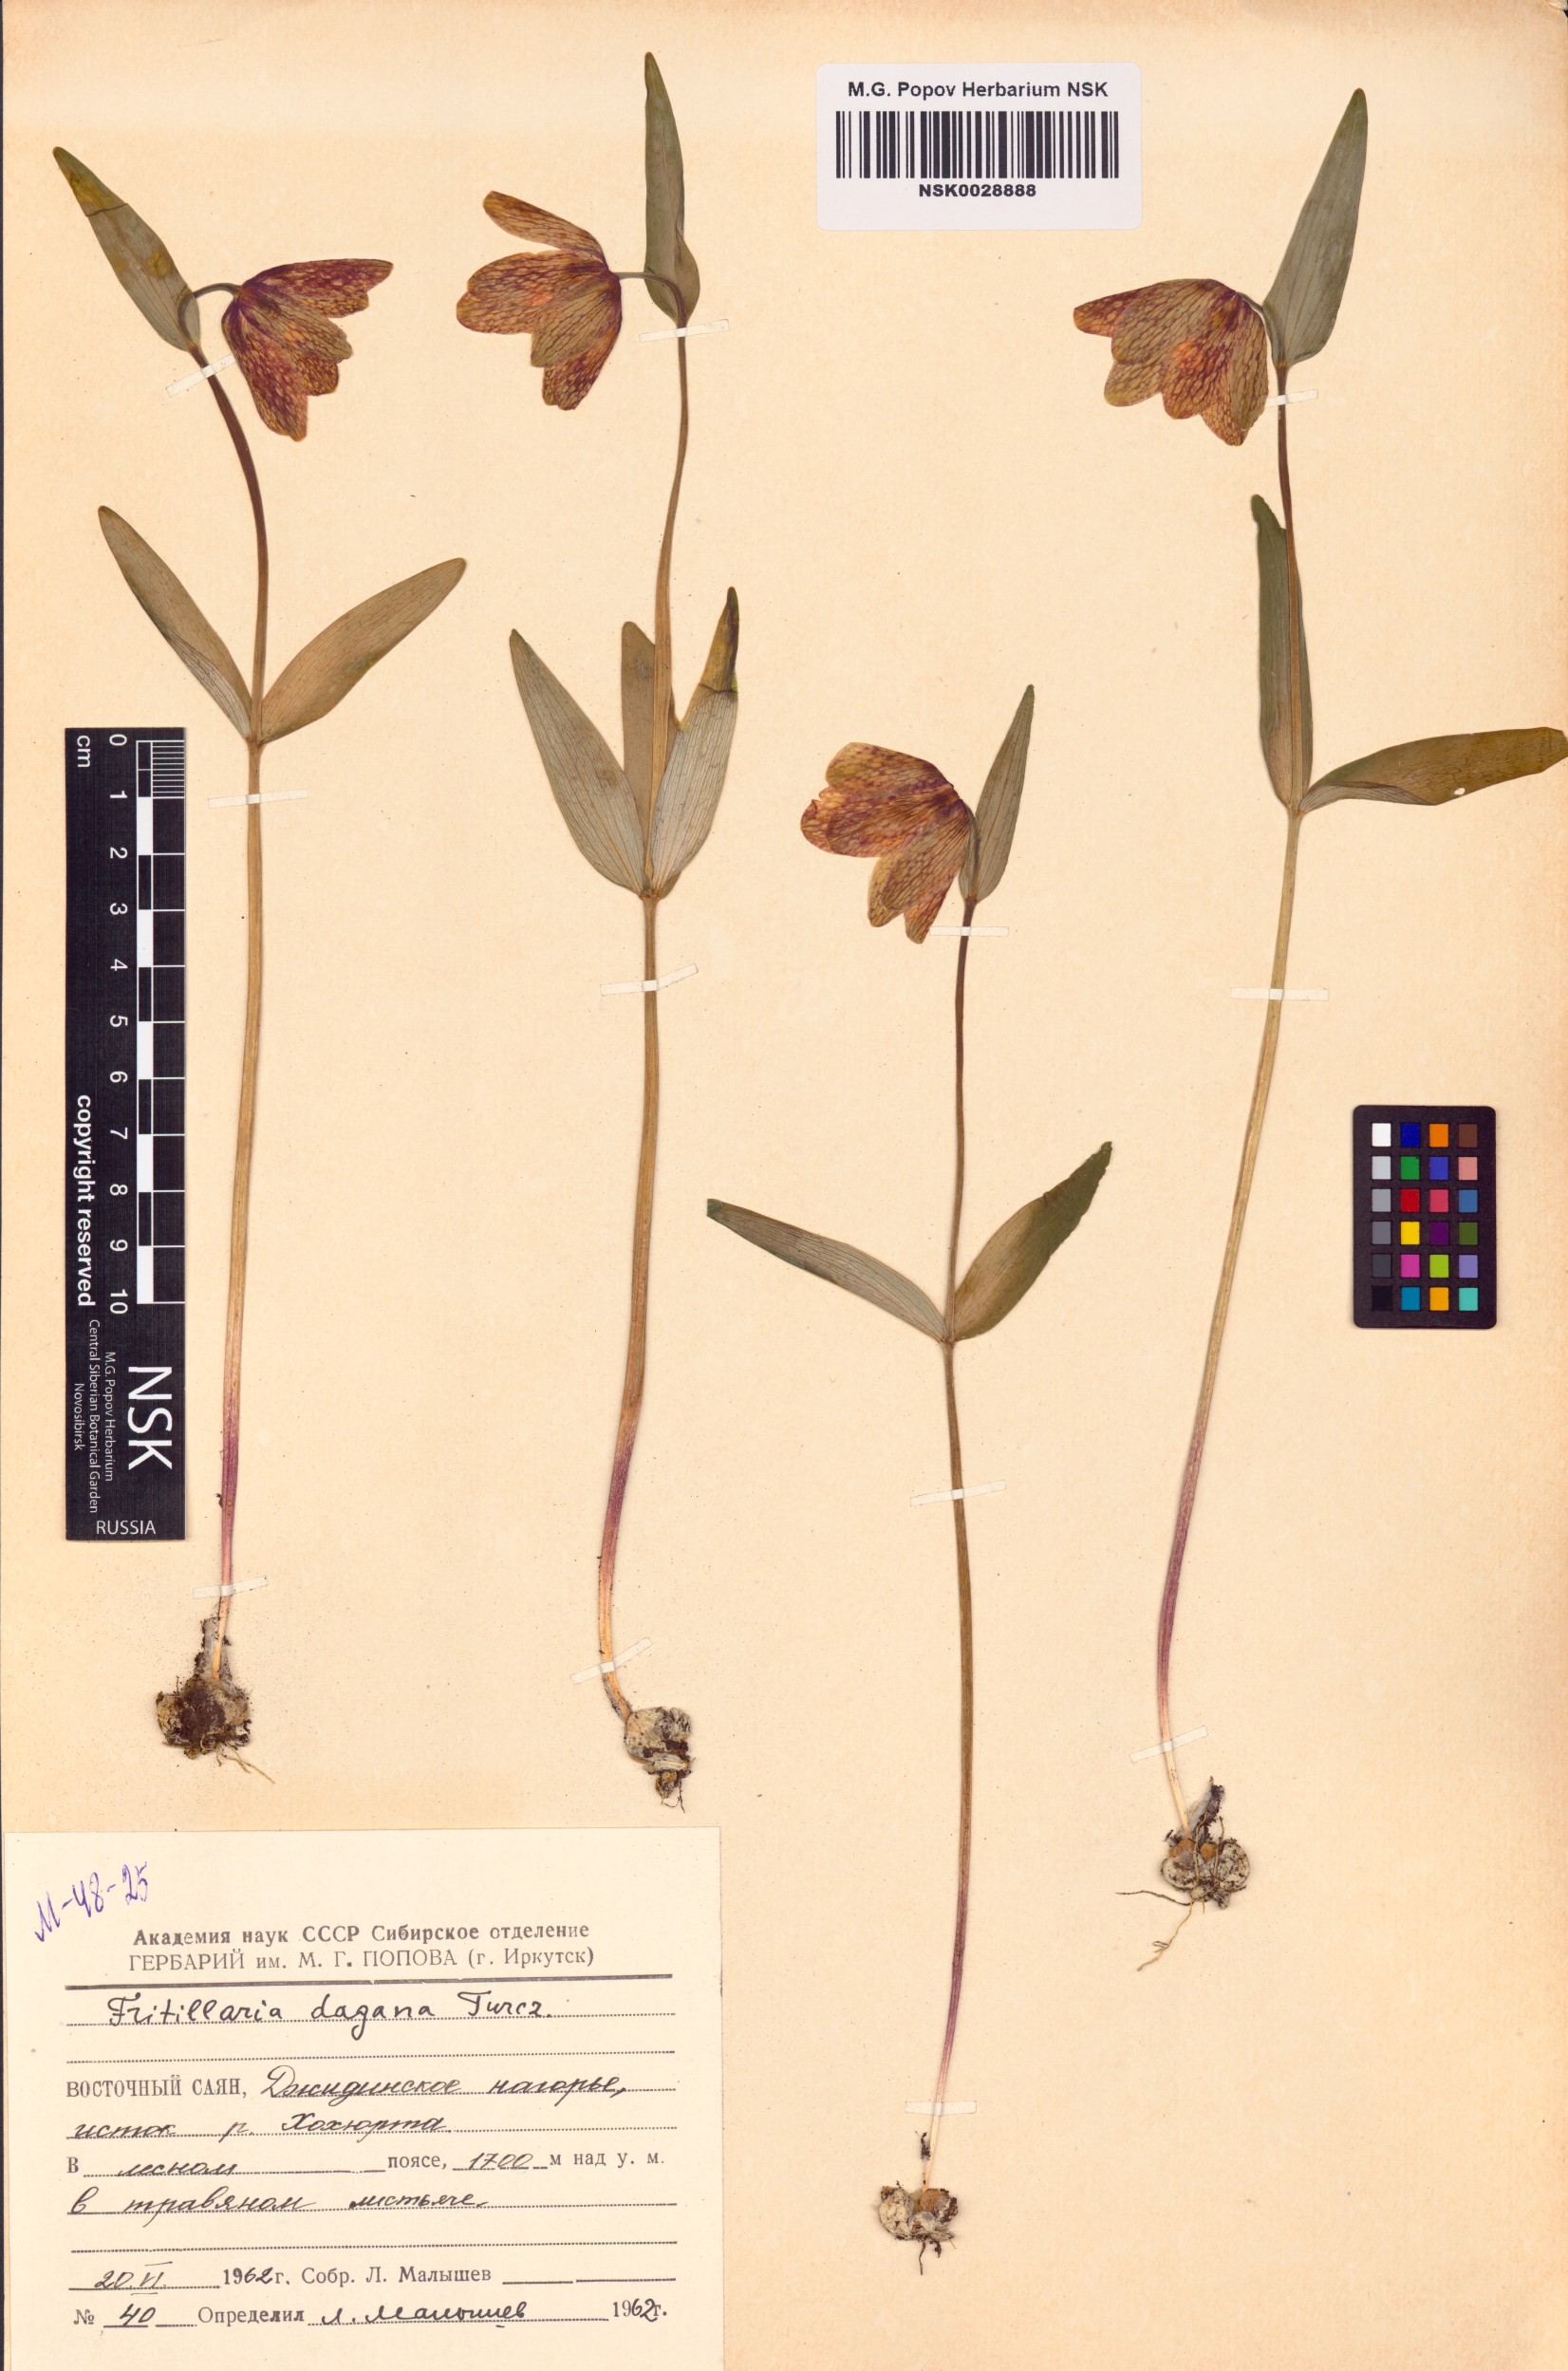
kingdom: Plantae
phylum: Tracheophyta
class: Liliopsida
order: Liliales
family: Liliaceae
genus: Fritillaria
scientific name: Fritillaria dagana
